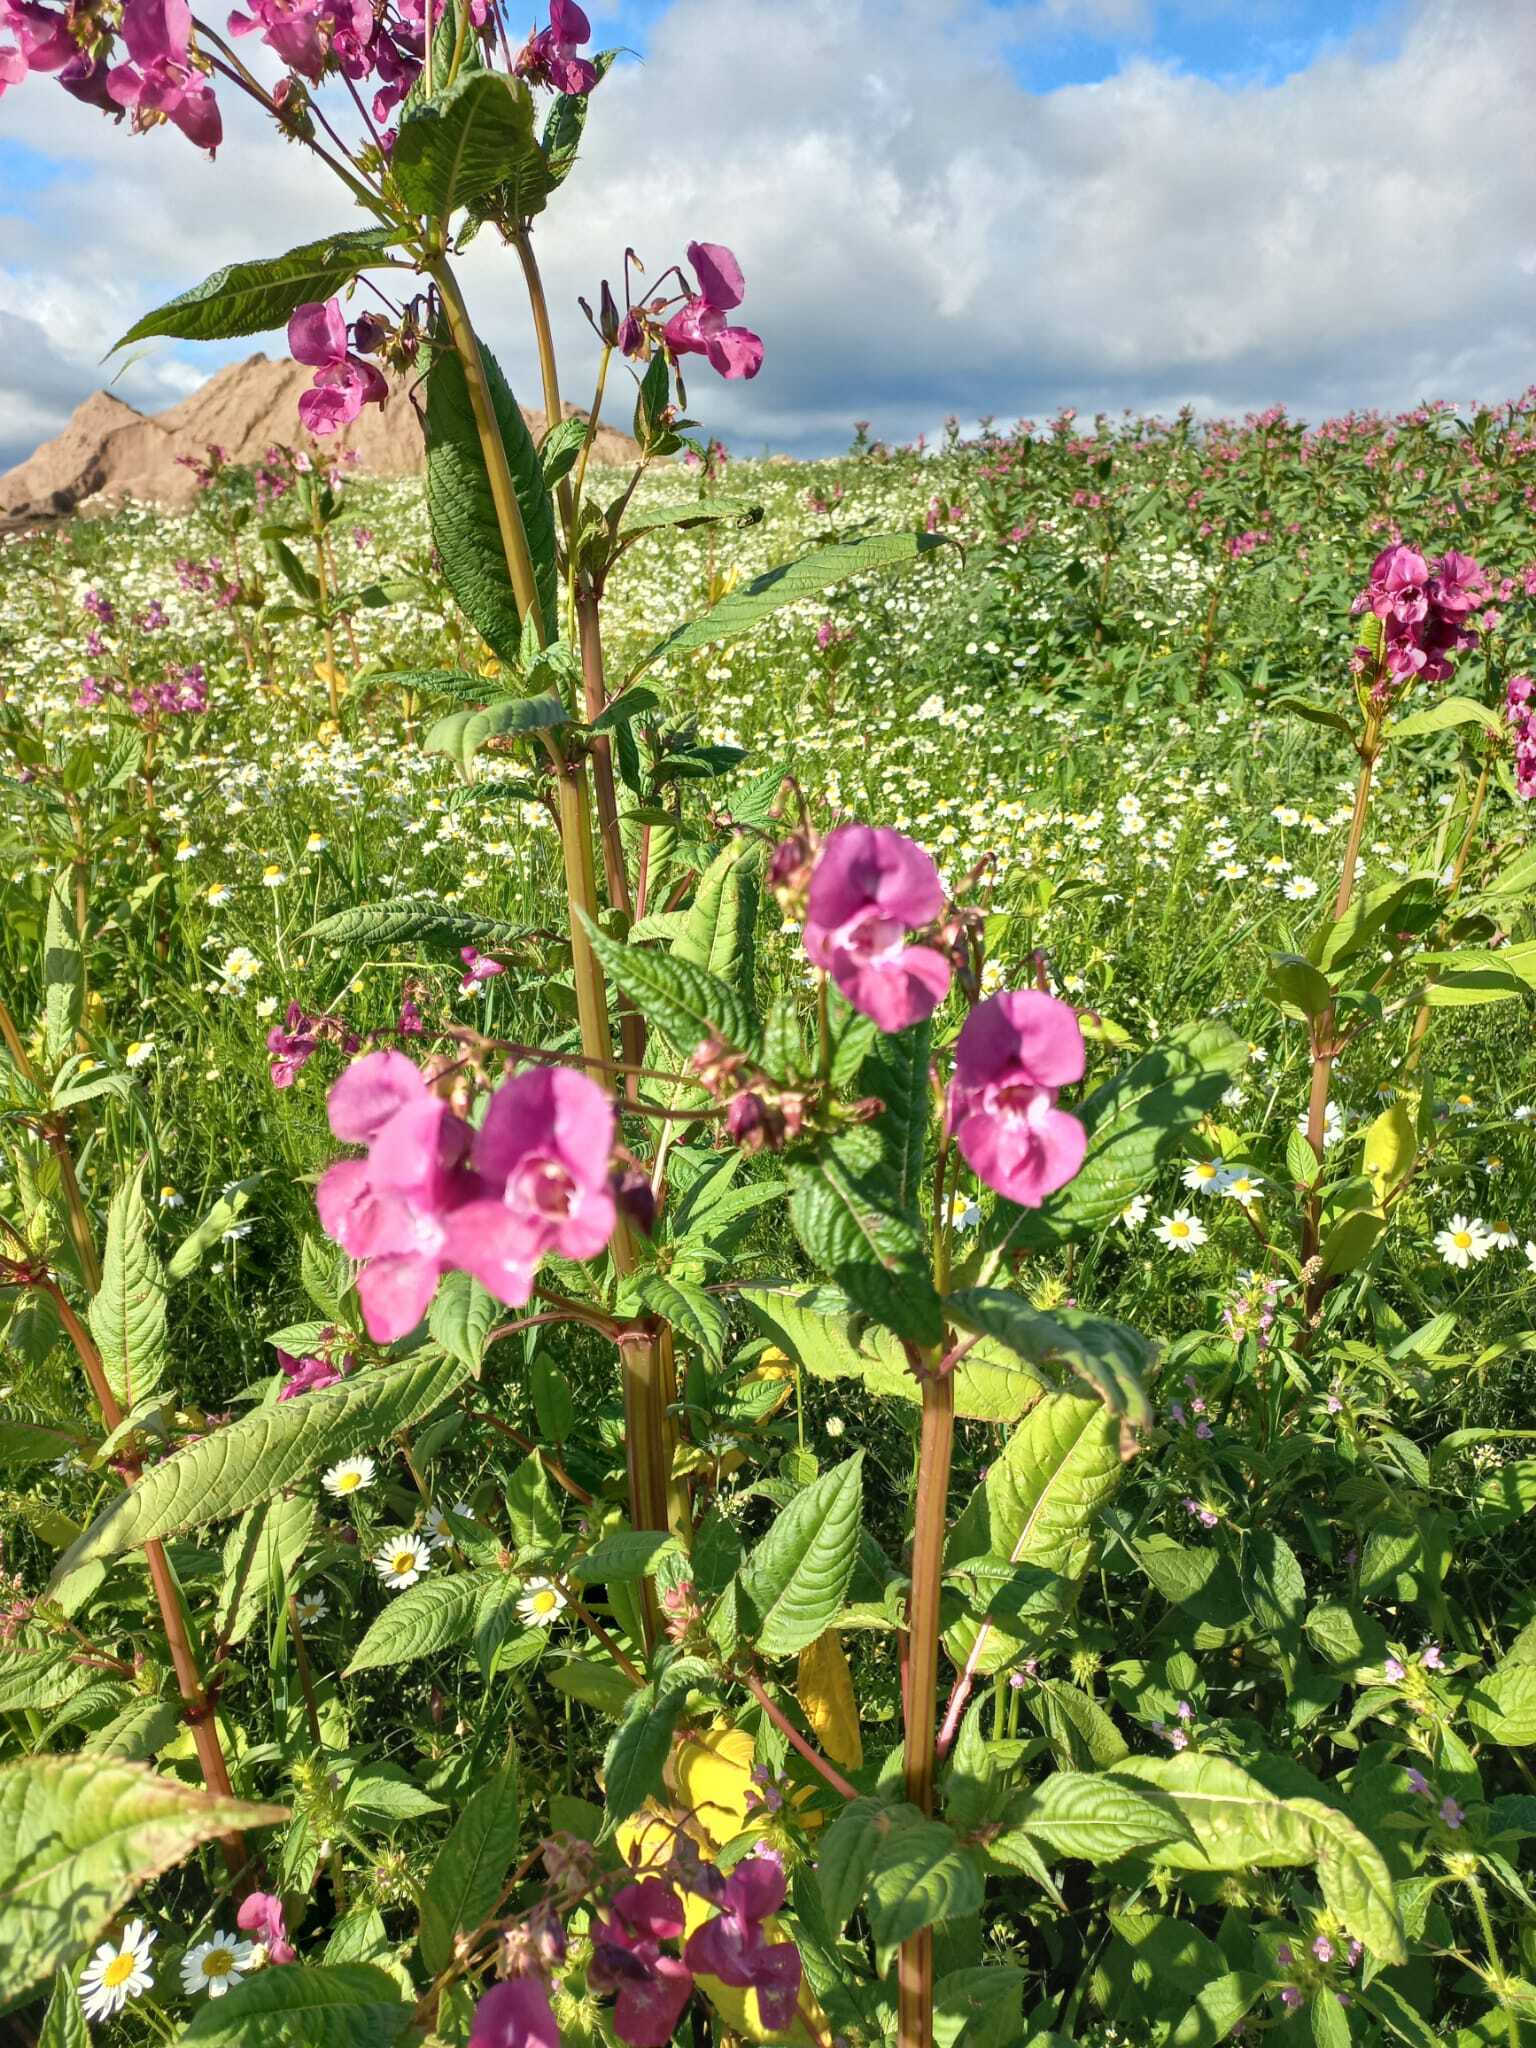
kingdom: Plantae
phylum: Tracheophyta
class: Magnoliopsida
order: Ericales
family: Balsaminaceae
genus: Impatiens
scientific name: Impatiens glandulifera
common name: Himalayan balsam
